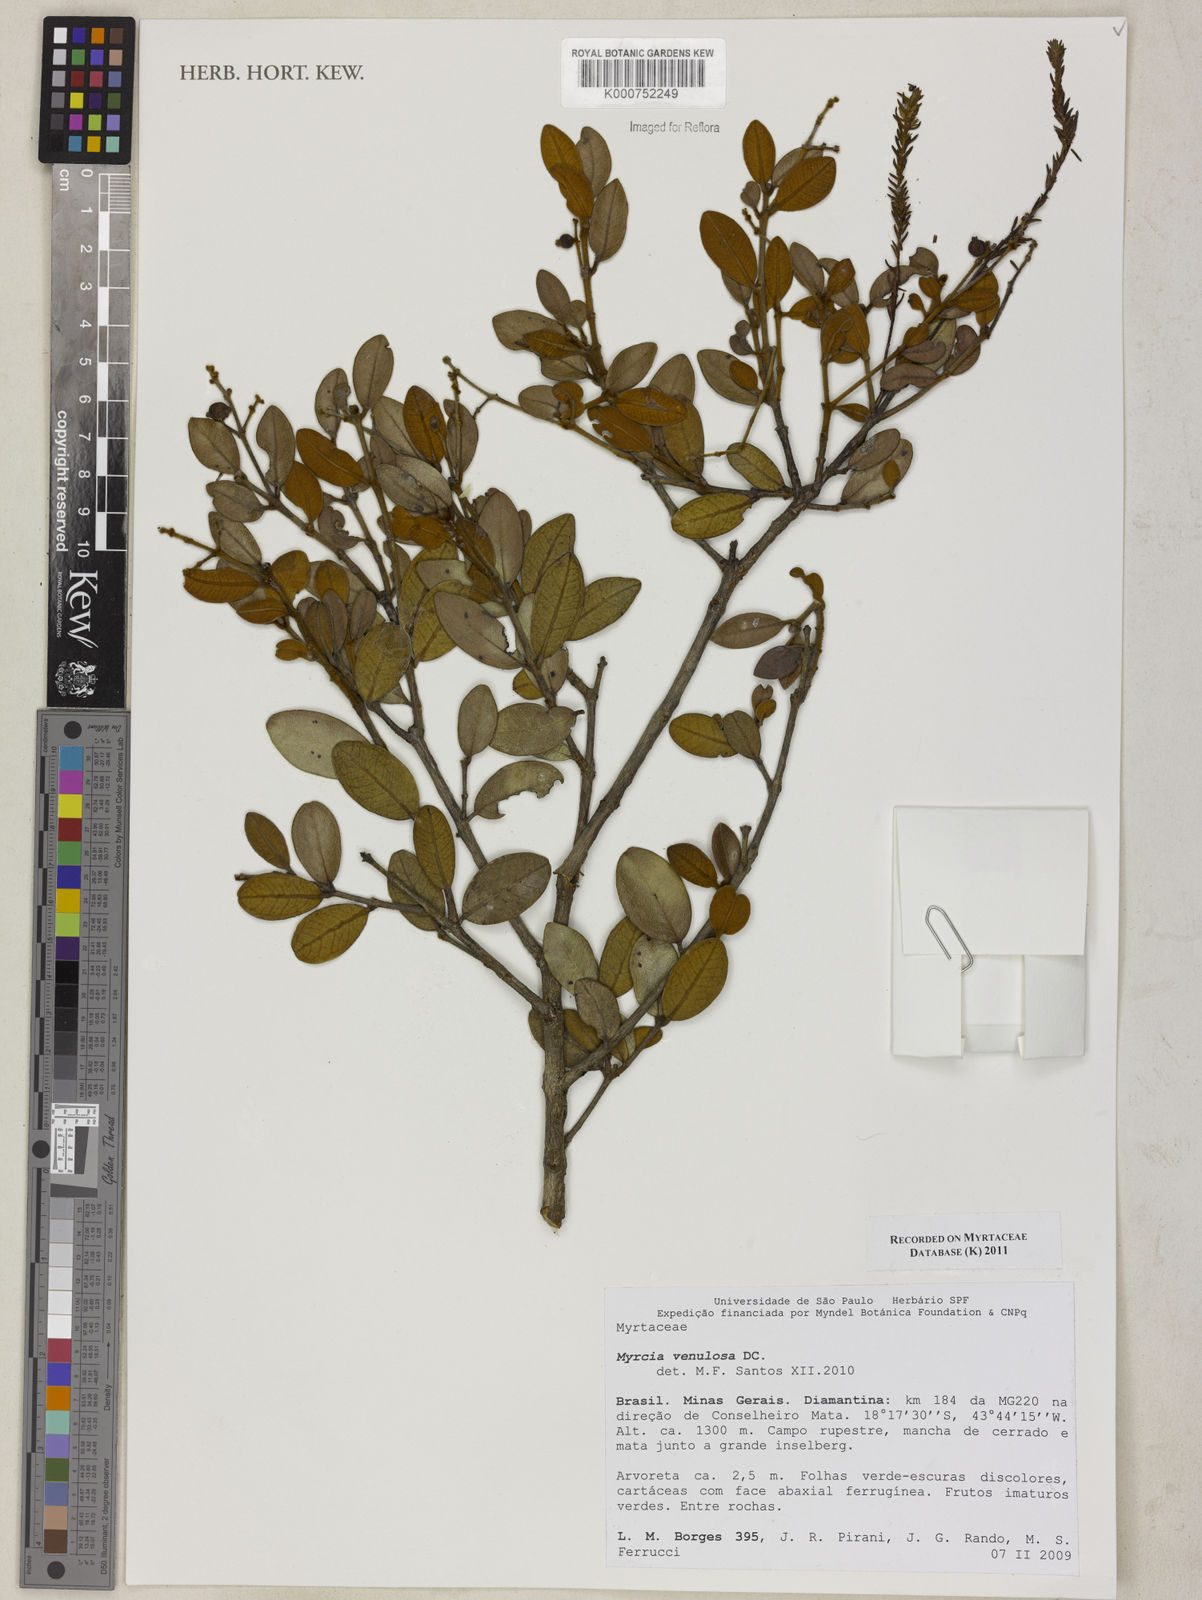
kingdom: Plantae
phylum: Tracheophyta
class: Magnoliopsida
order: Myrtales
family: Myrtaceae
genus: Myrcia
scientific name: Myrcia venulosa
